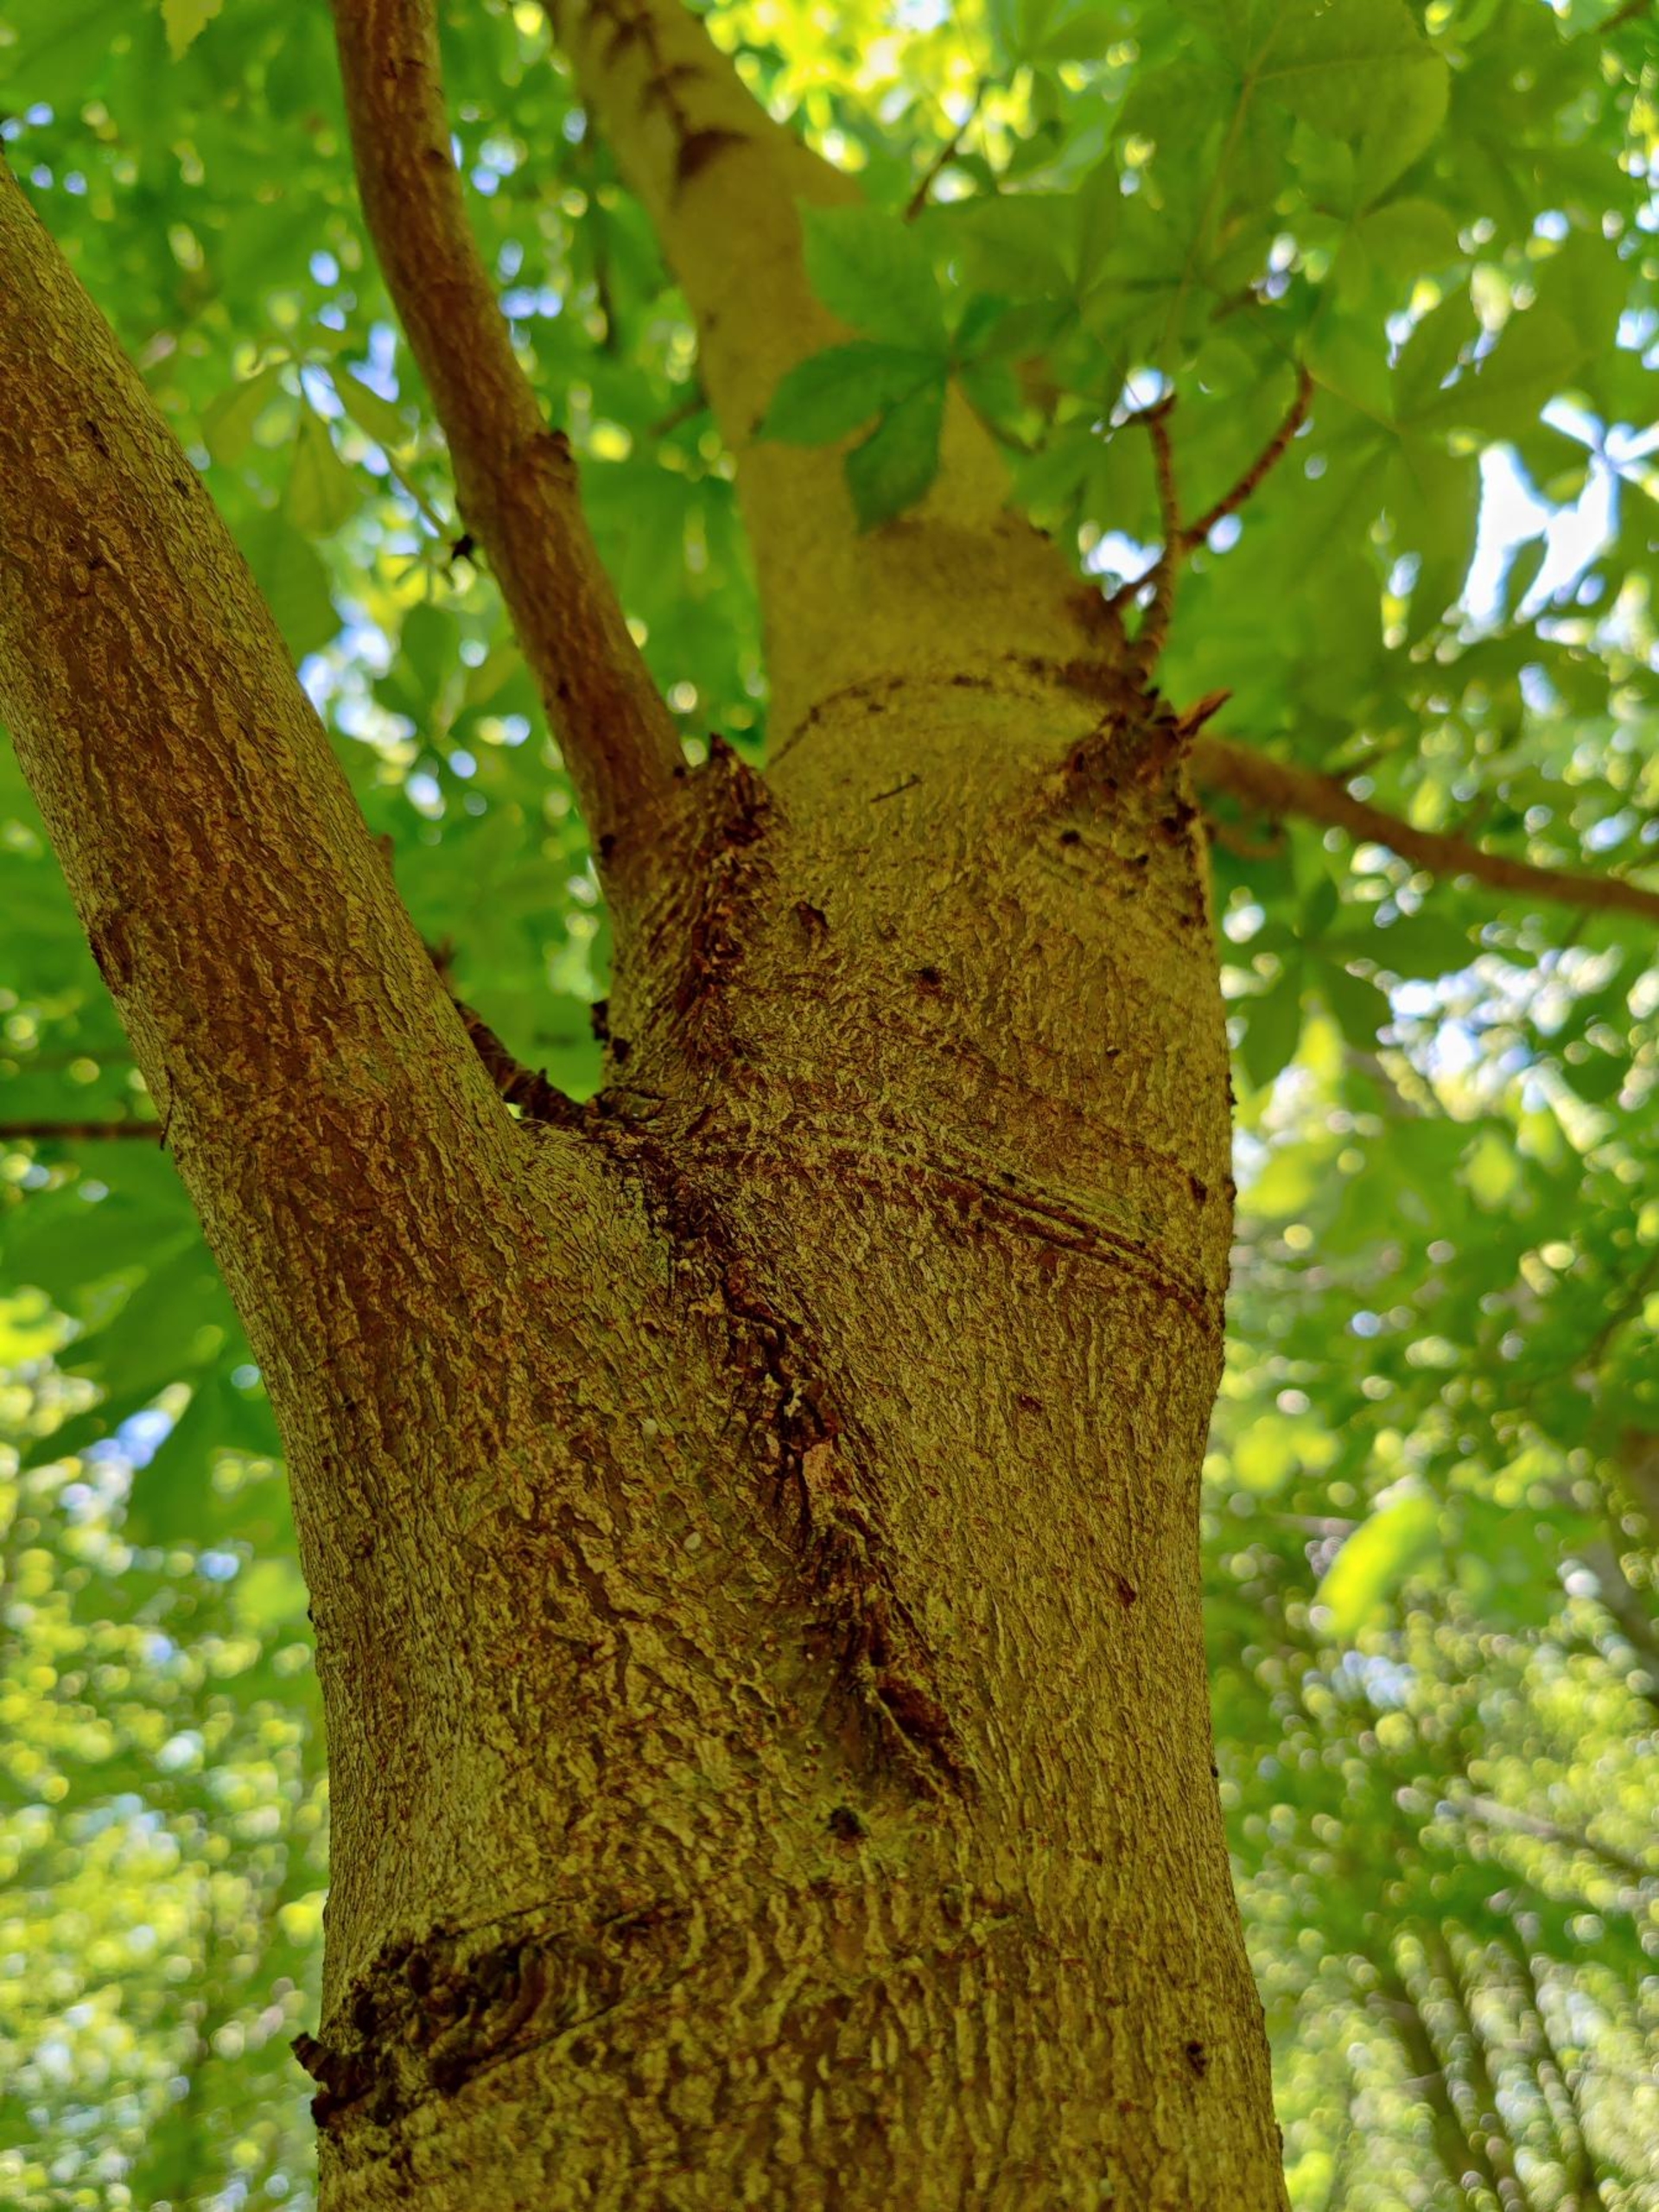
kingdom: Plantae
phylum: Tracheophyta
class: Magnoliopsida
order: Sapindales
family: Sapindaceae
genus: Aesculus
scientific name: Aesculus hippocastanum
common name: Hestekastanie
